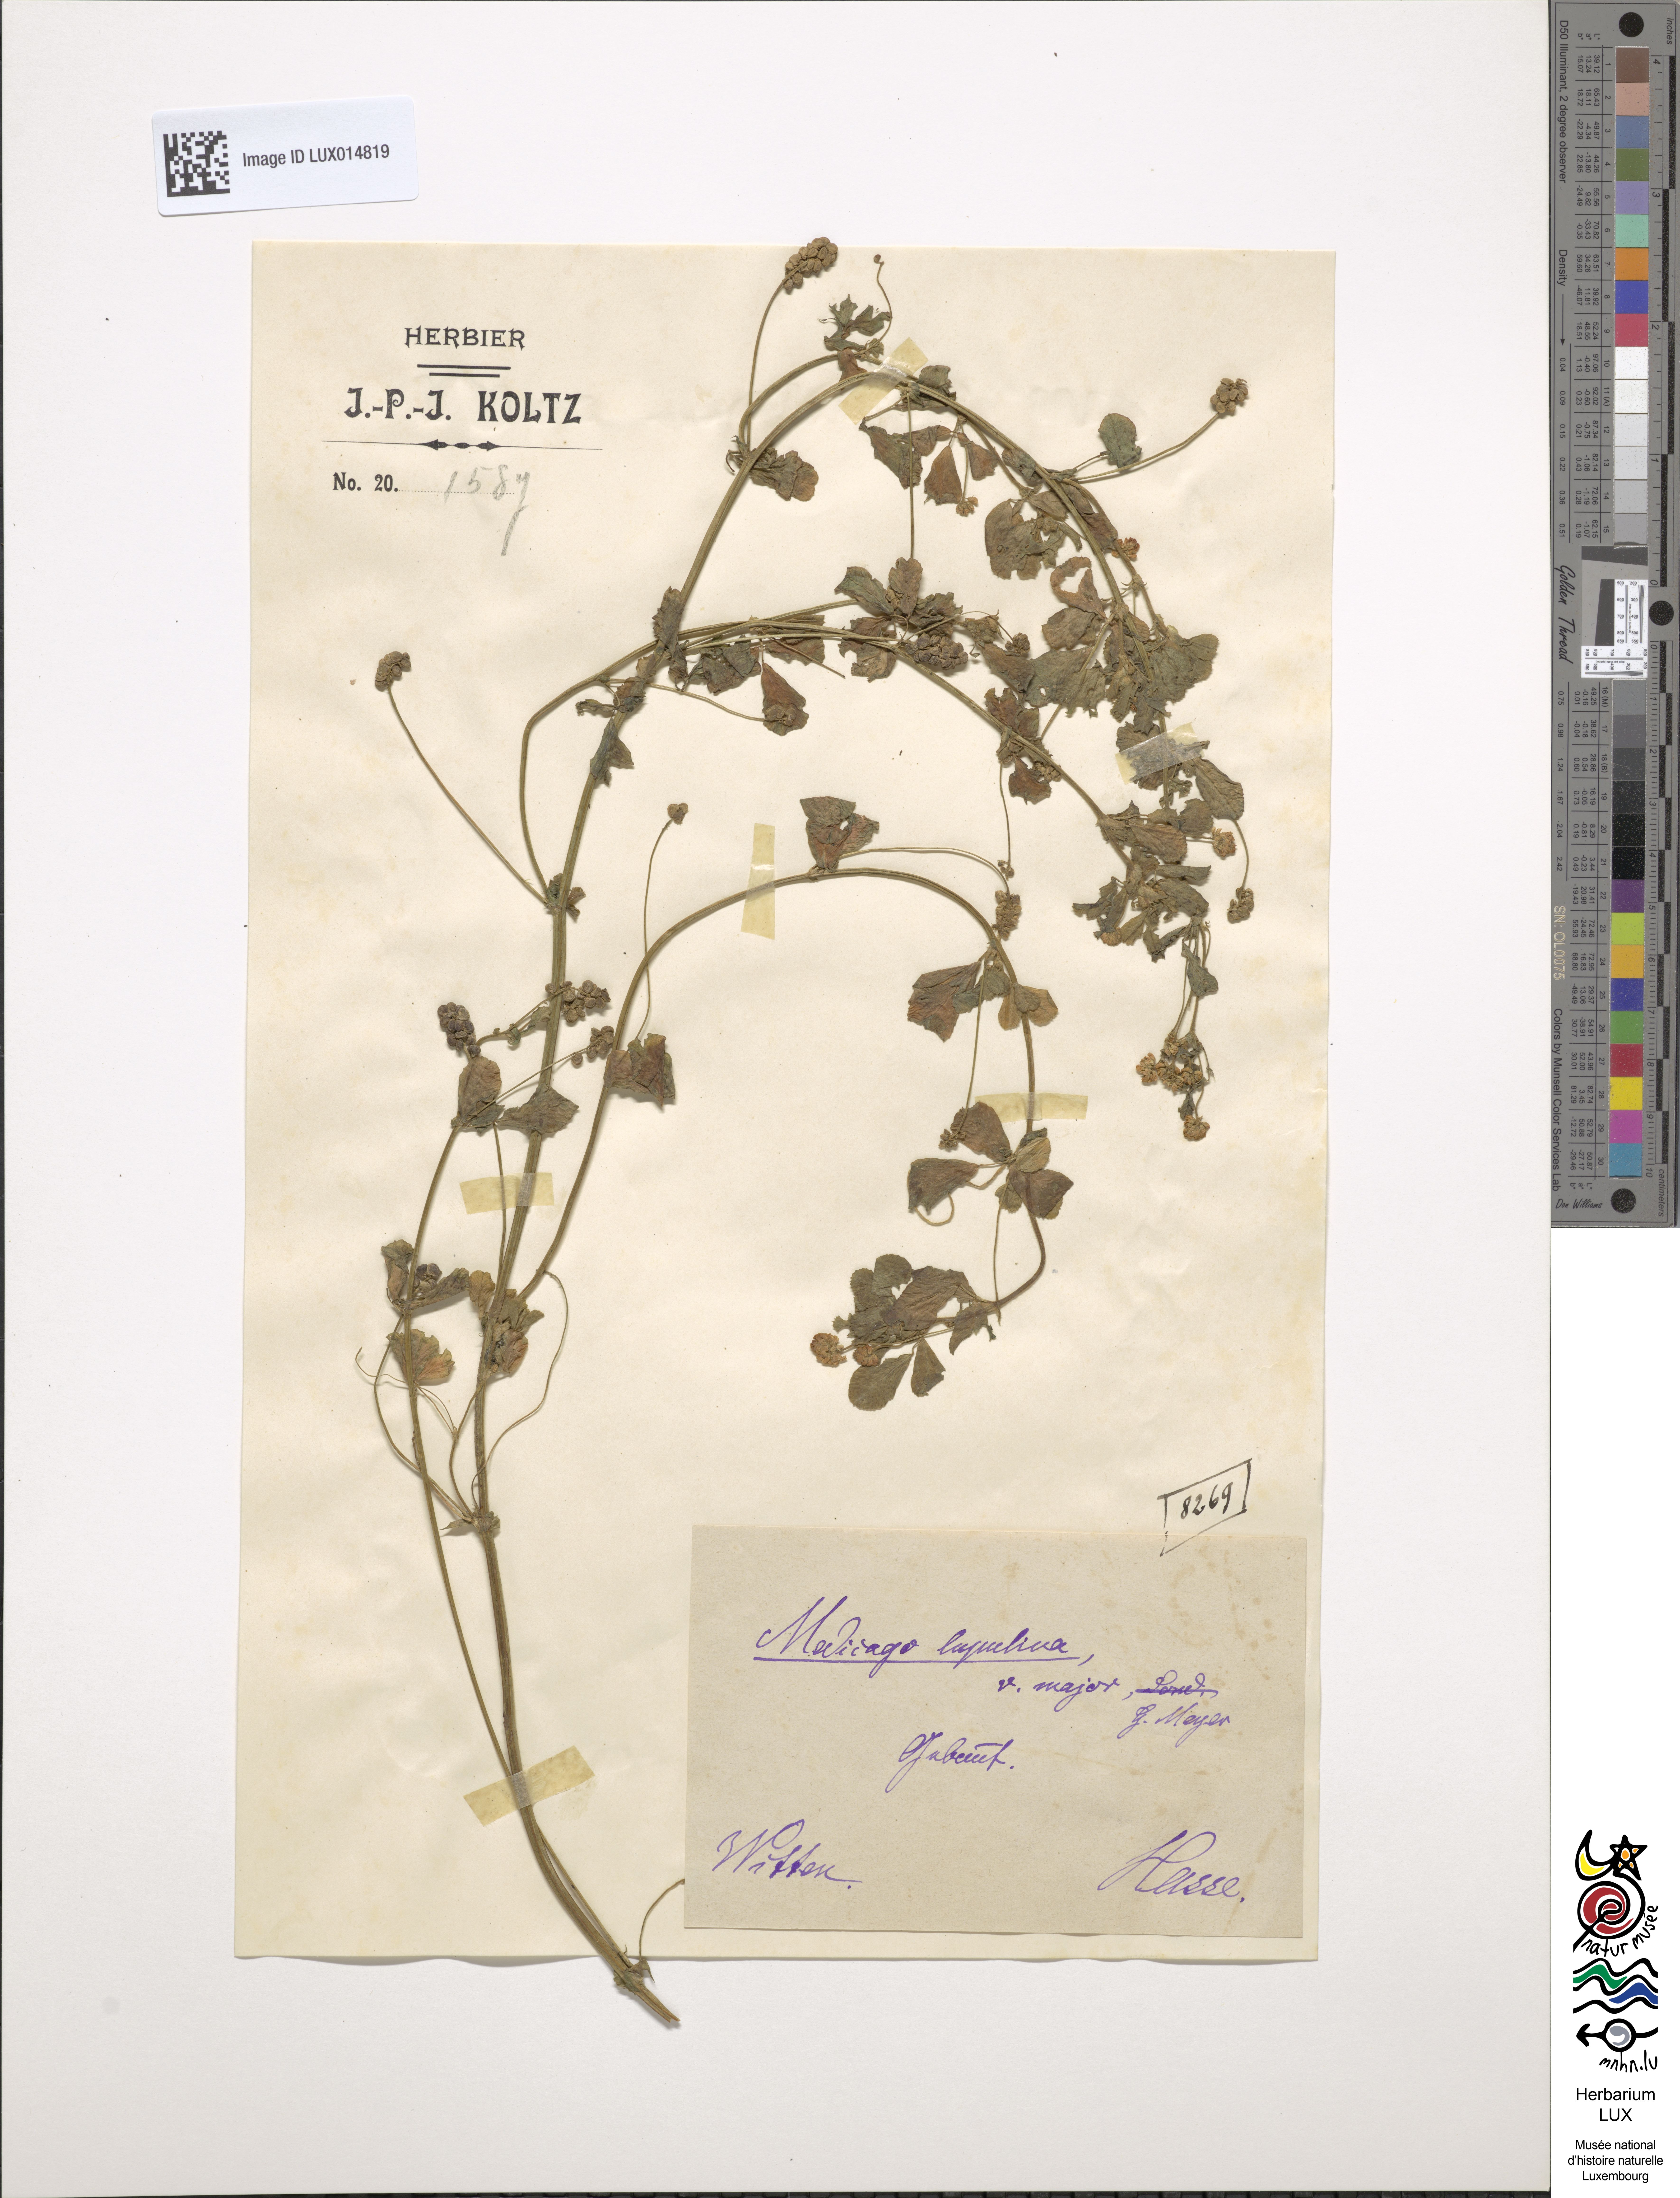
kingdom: Plantae
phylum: Tracheophyta
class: Magnoliopsida
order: Fabales
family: Fabaceae
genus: Medicago
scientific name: Medicago lupulina
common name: Black medick
